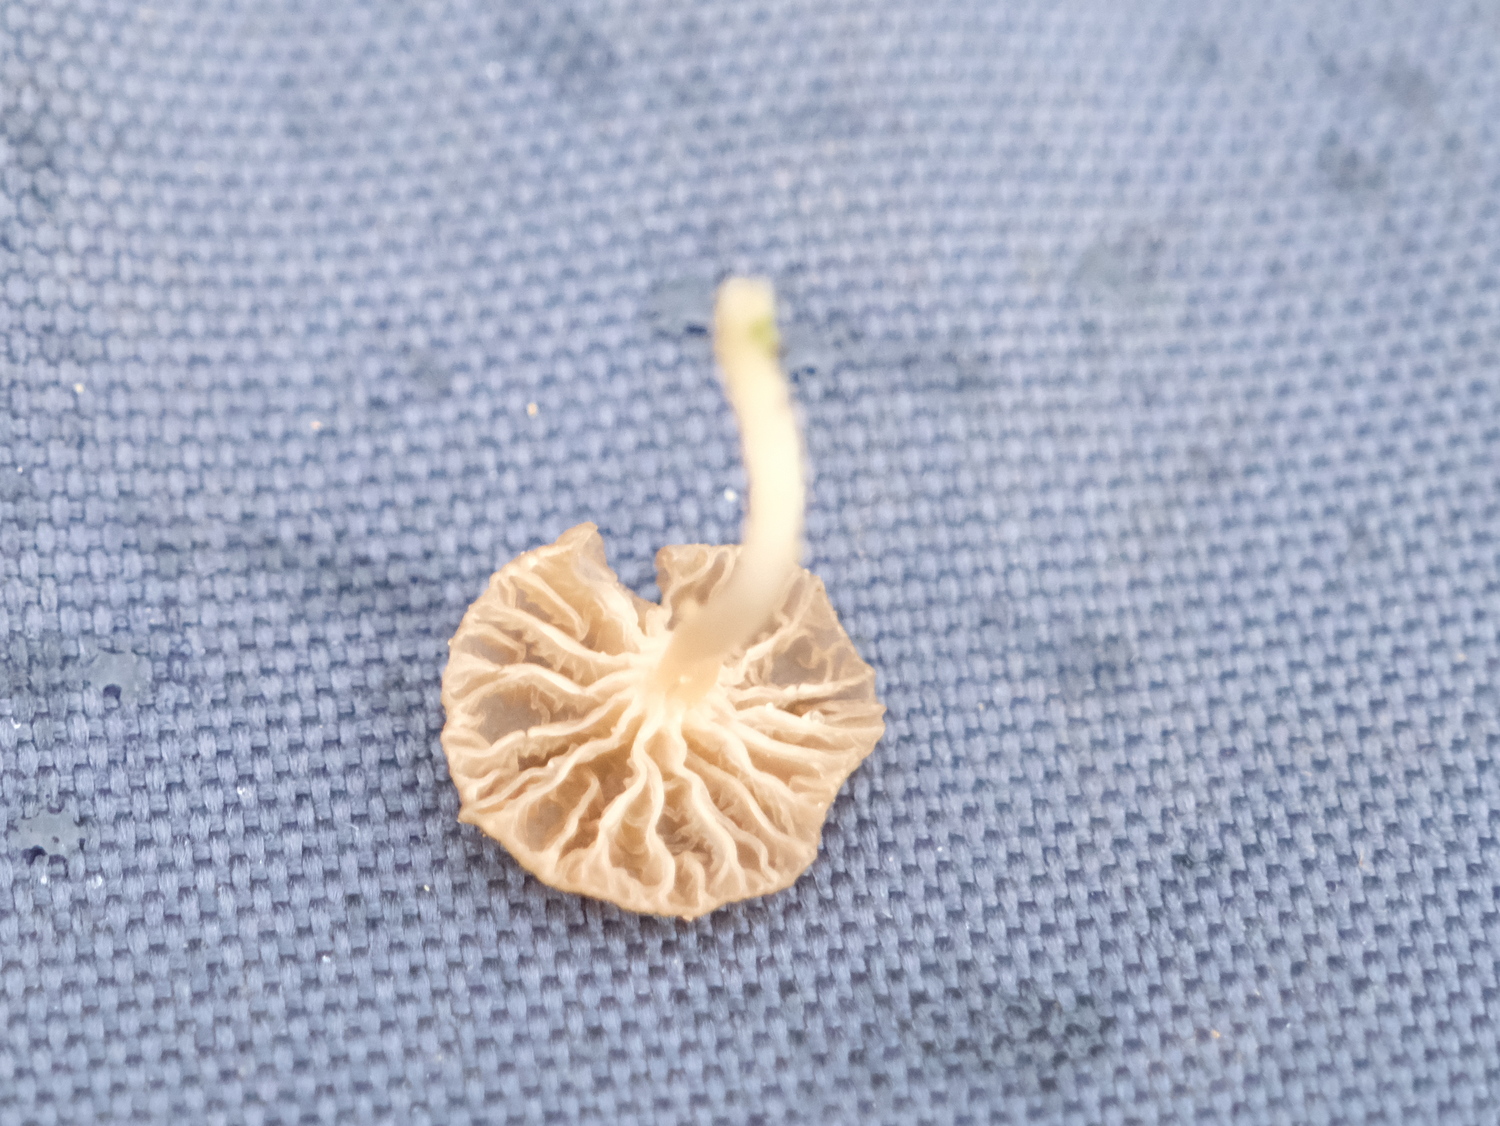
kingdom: Fungi
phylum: Basidiomycota
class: Agaricomycetes
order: Agaricales
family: Hygrophoraceae
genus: Arrhenia
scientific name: Arrhenia peltigerina
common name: skjoldlav-fontænehat
